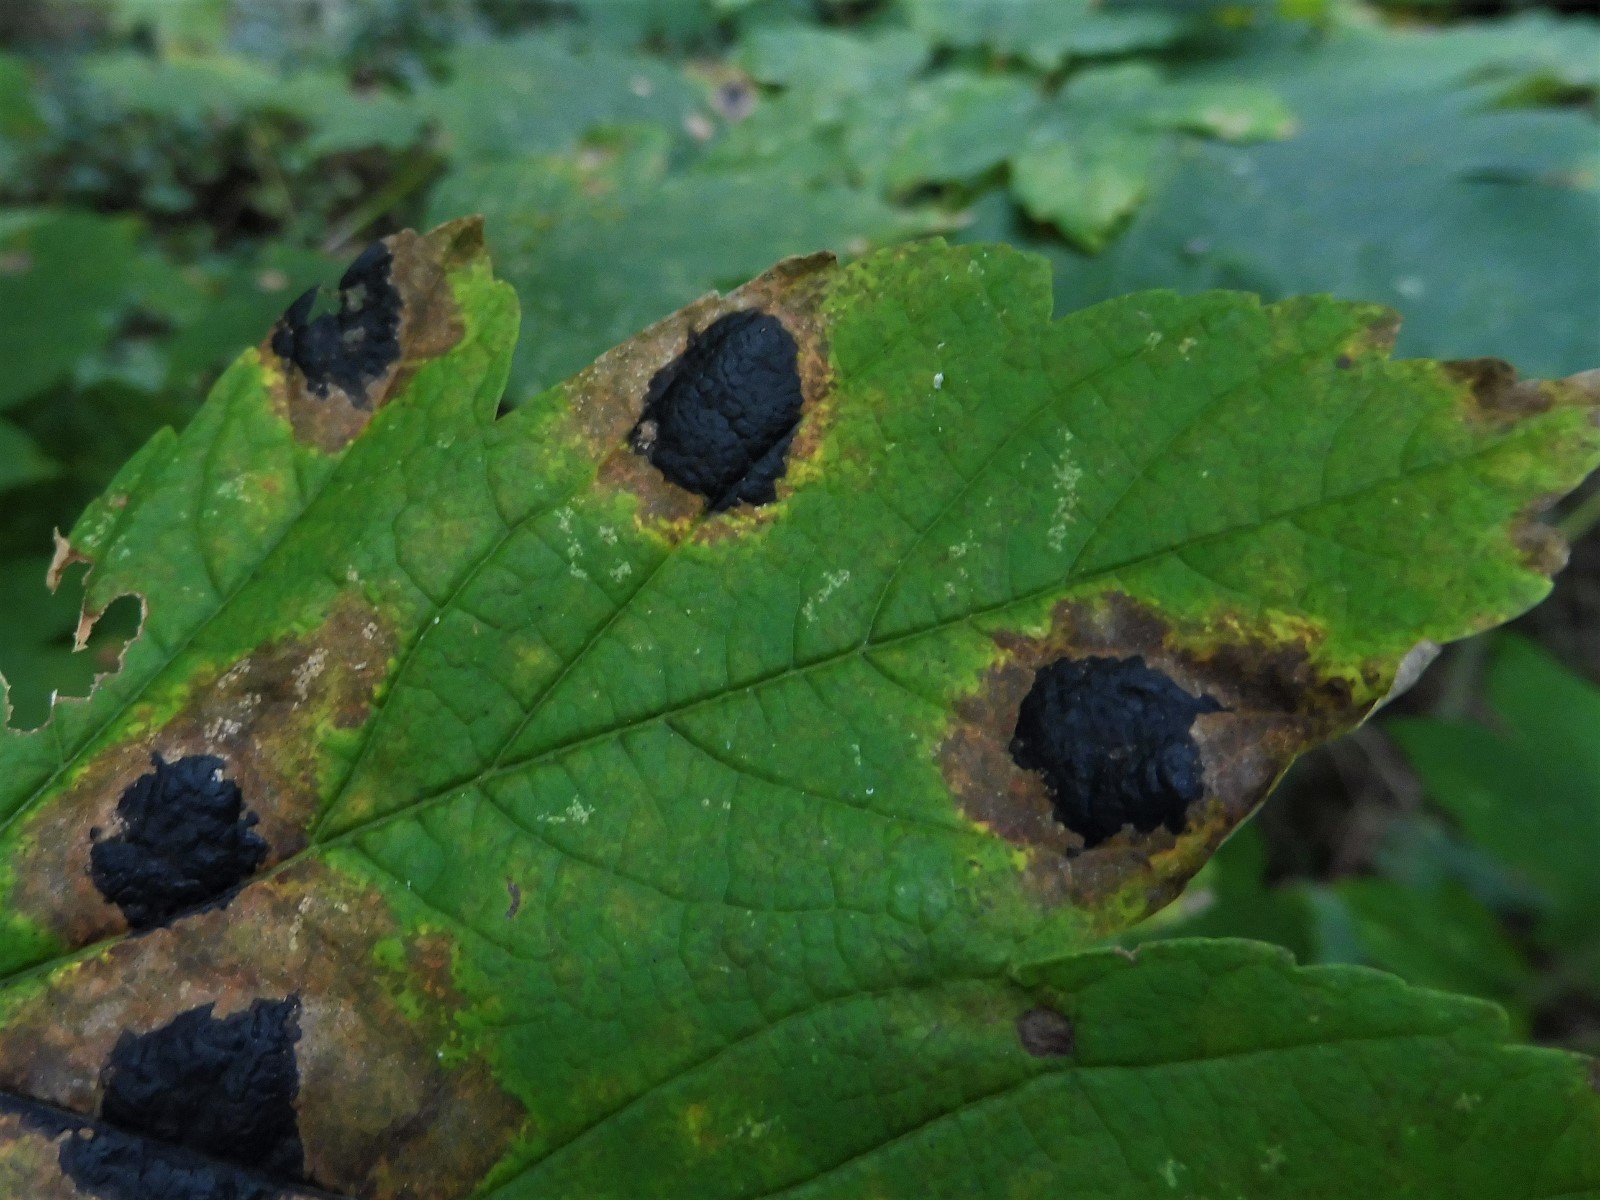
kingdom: Fungi
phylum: Ascomycota
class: Leotiomycetes
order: Rhytismatales
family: Rhytismataceae
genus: Rhytisma
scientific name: Rhytisma acerinum
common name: ahorn-rynkeplet
